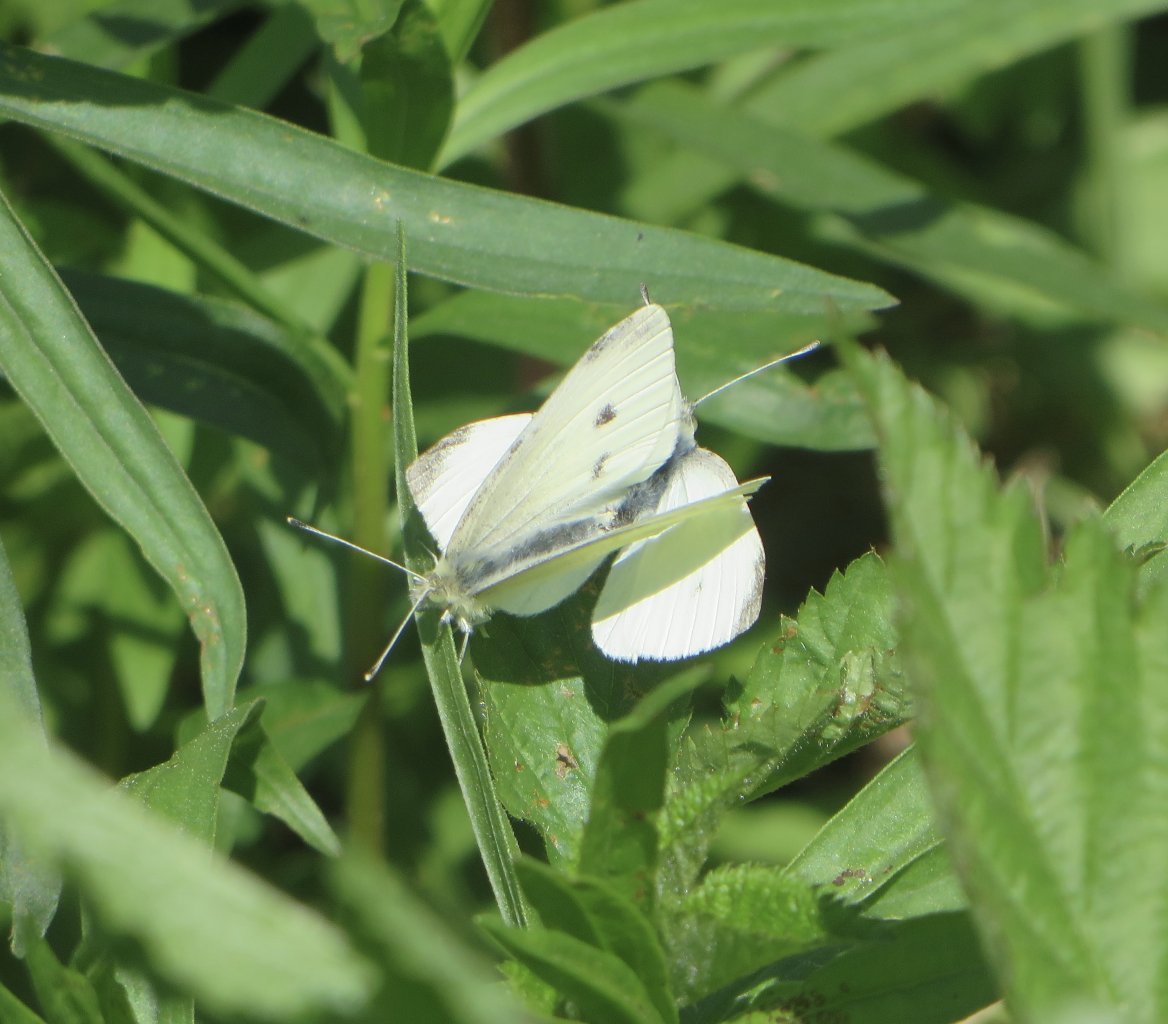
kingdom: Animalia
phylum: Arthropoda
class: Insecta
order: Lepidoptera
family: Pieridae
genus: Pieris
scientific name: Pieris rapae
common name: Cabbage White
